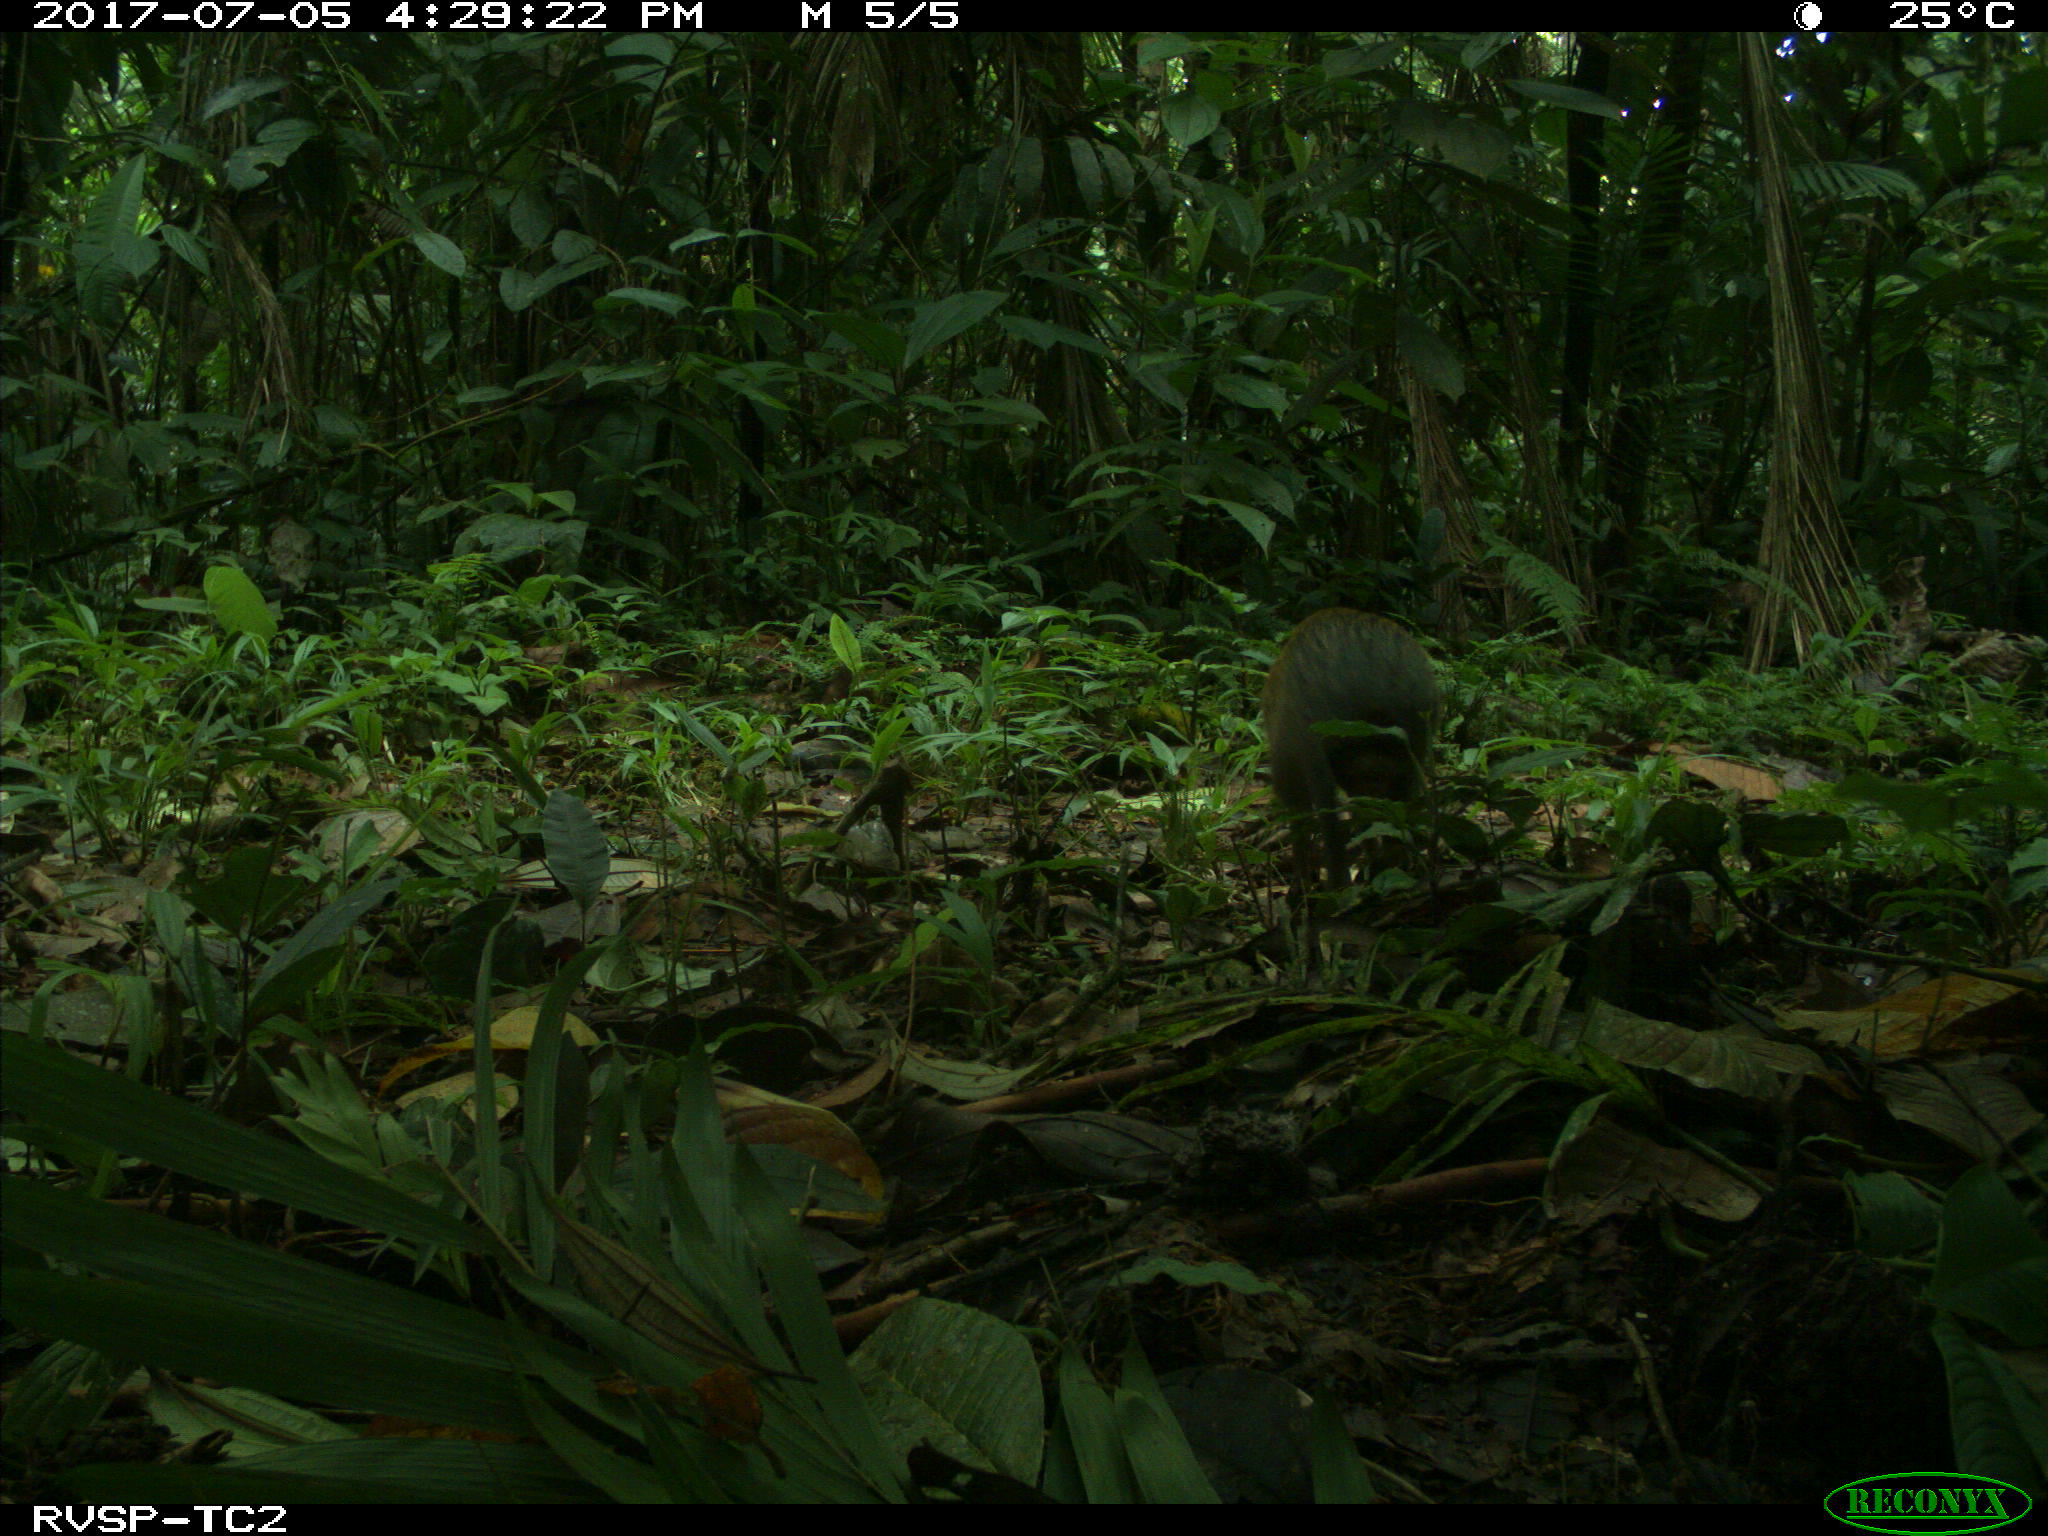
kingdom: Animalia
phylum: Chordata
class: Mammalia
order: Rodentia
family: Dasyproctidae
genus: Dasyprocta
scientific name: Dasyprocta punctata
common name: Central american agouti
